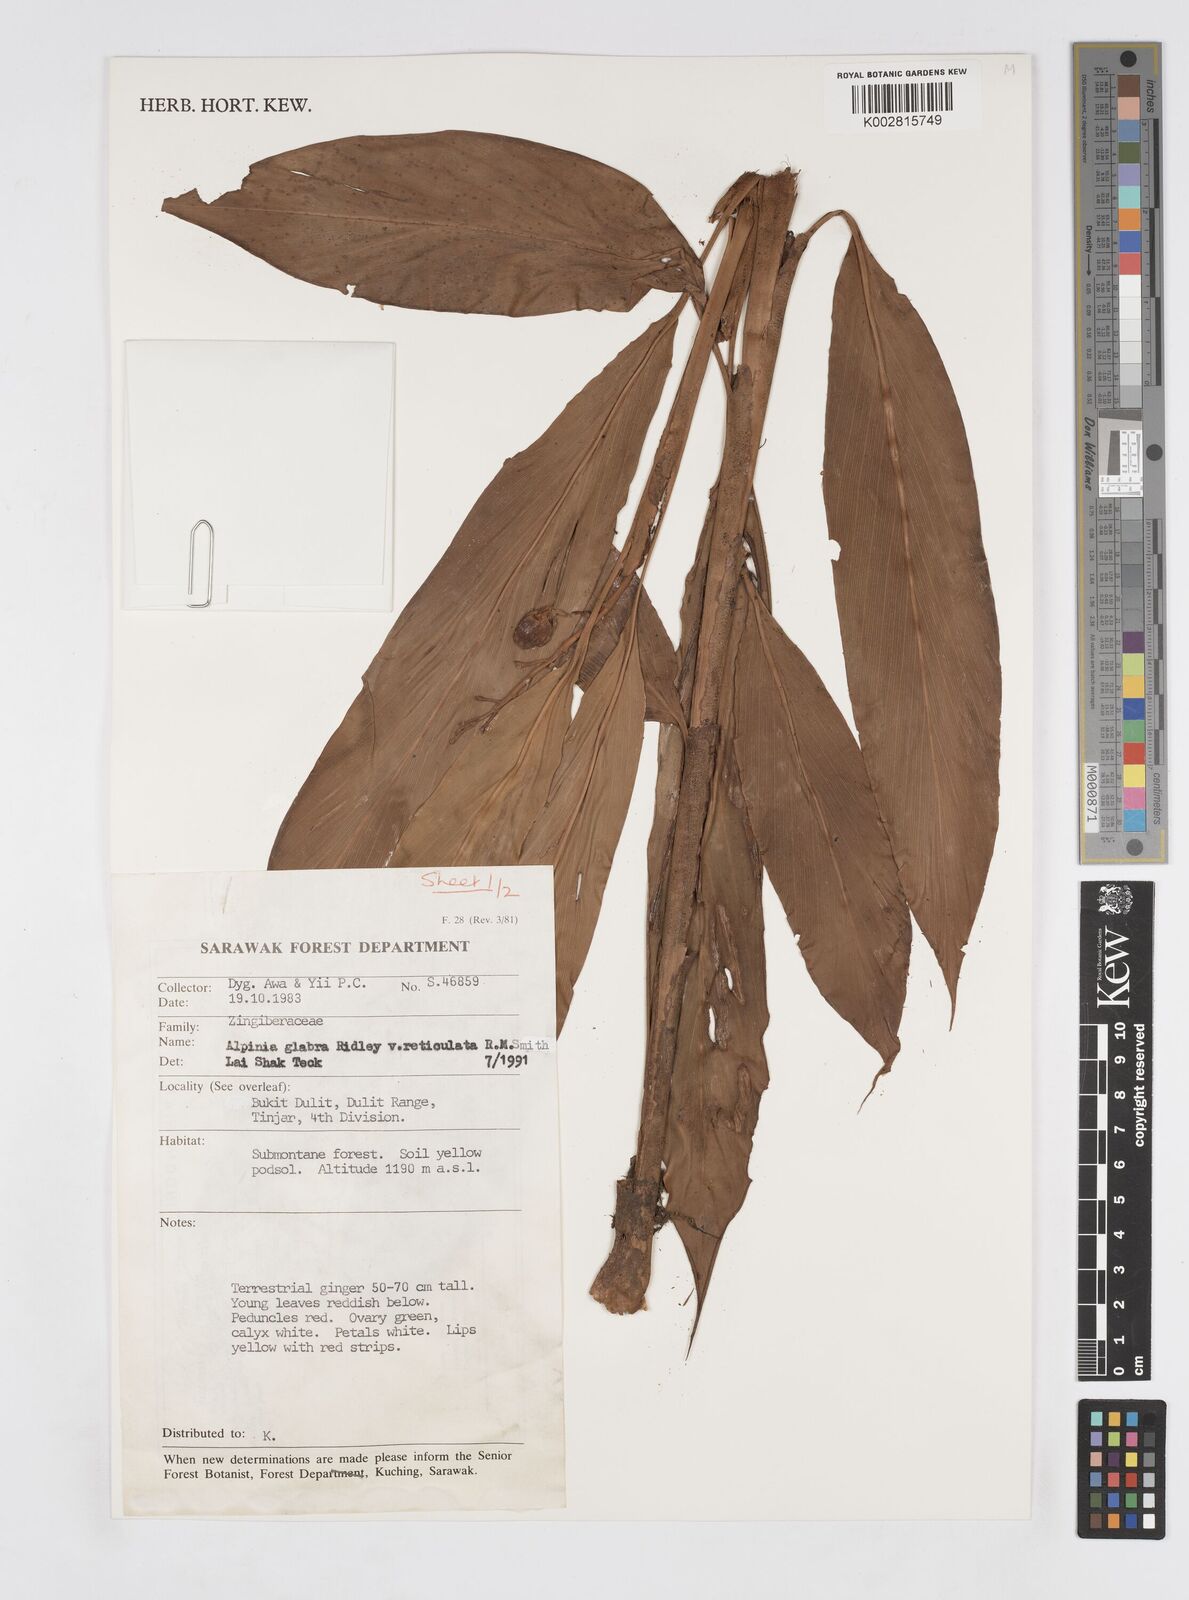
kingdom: Plantae
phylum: Tracheophyta
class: Liliopsida
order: Zingiberales
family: Zingiberaceae
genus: Alpinia
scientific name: Alpinia glabra
